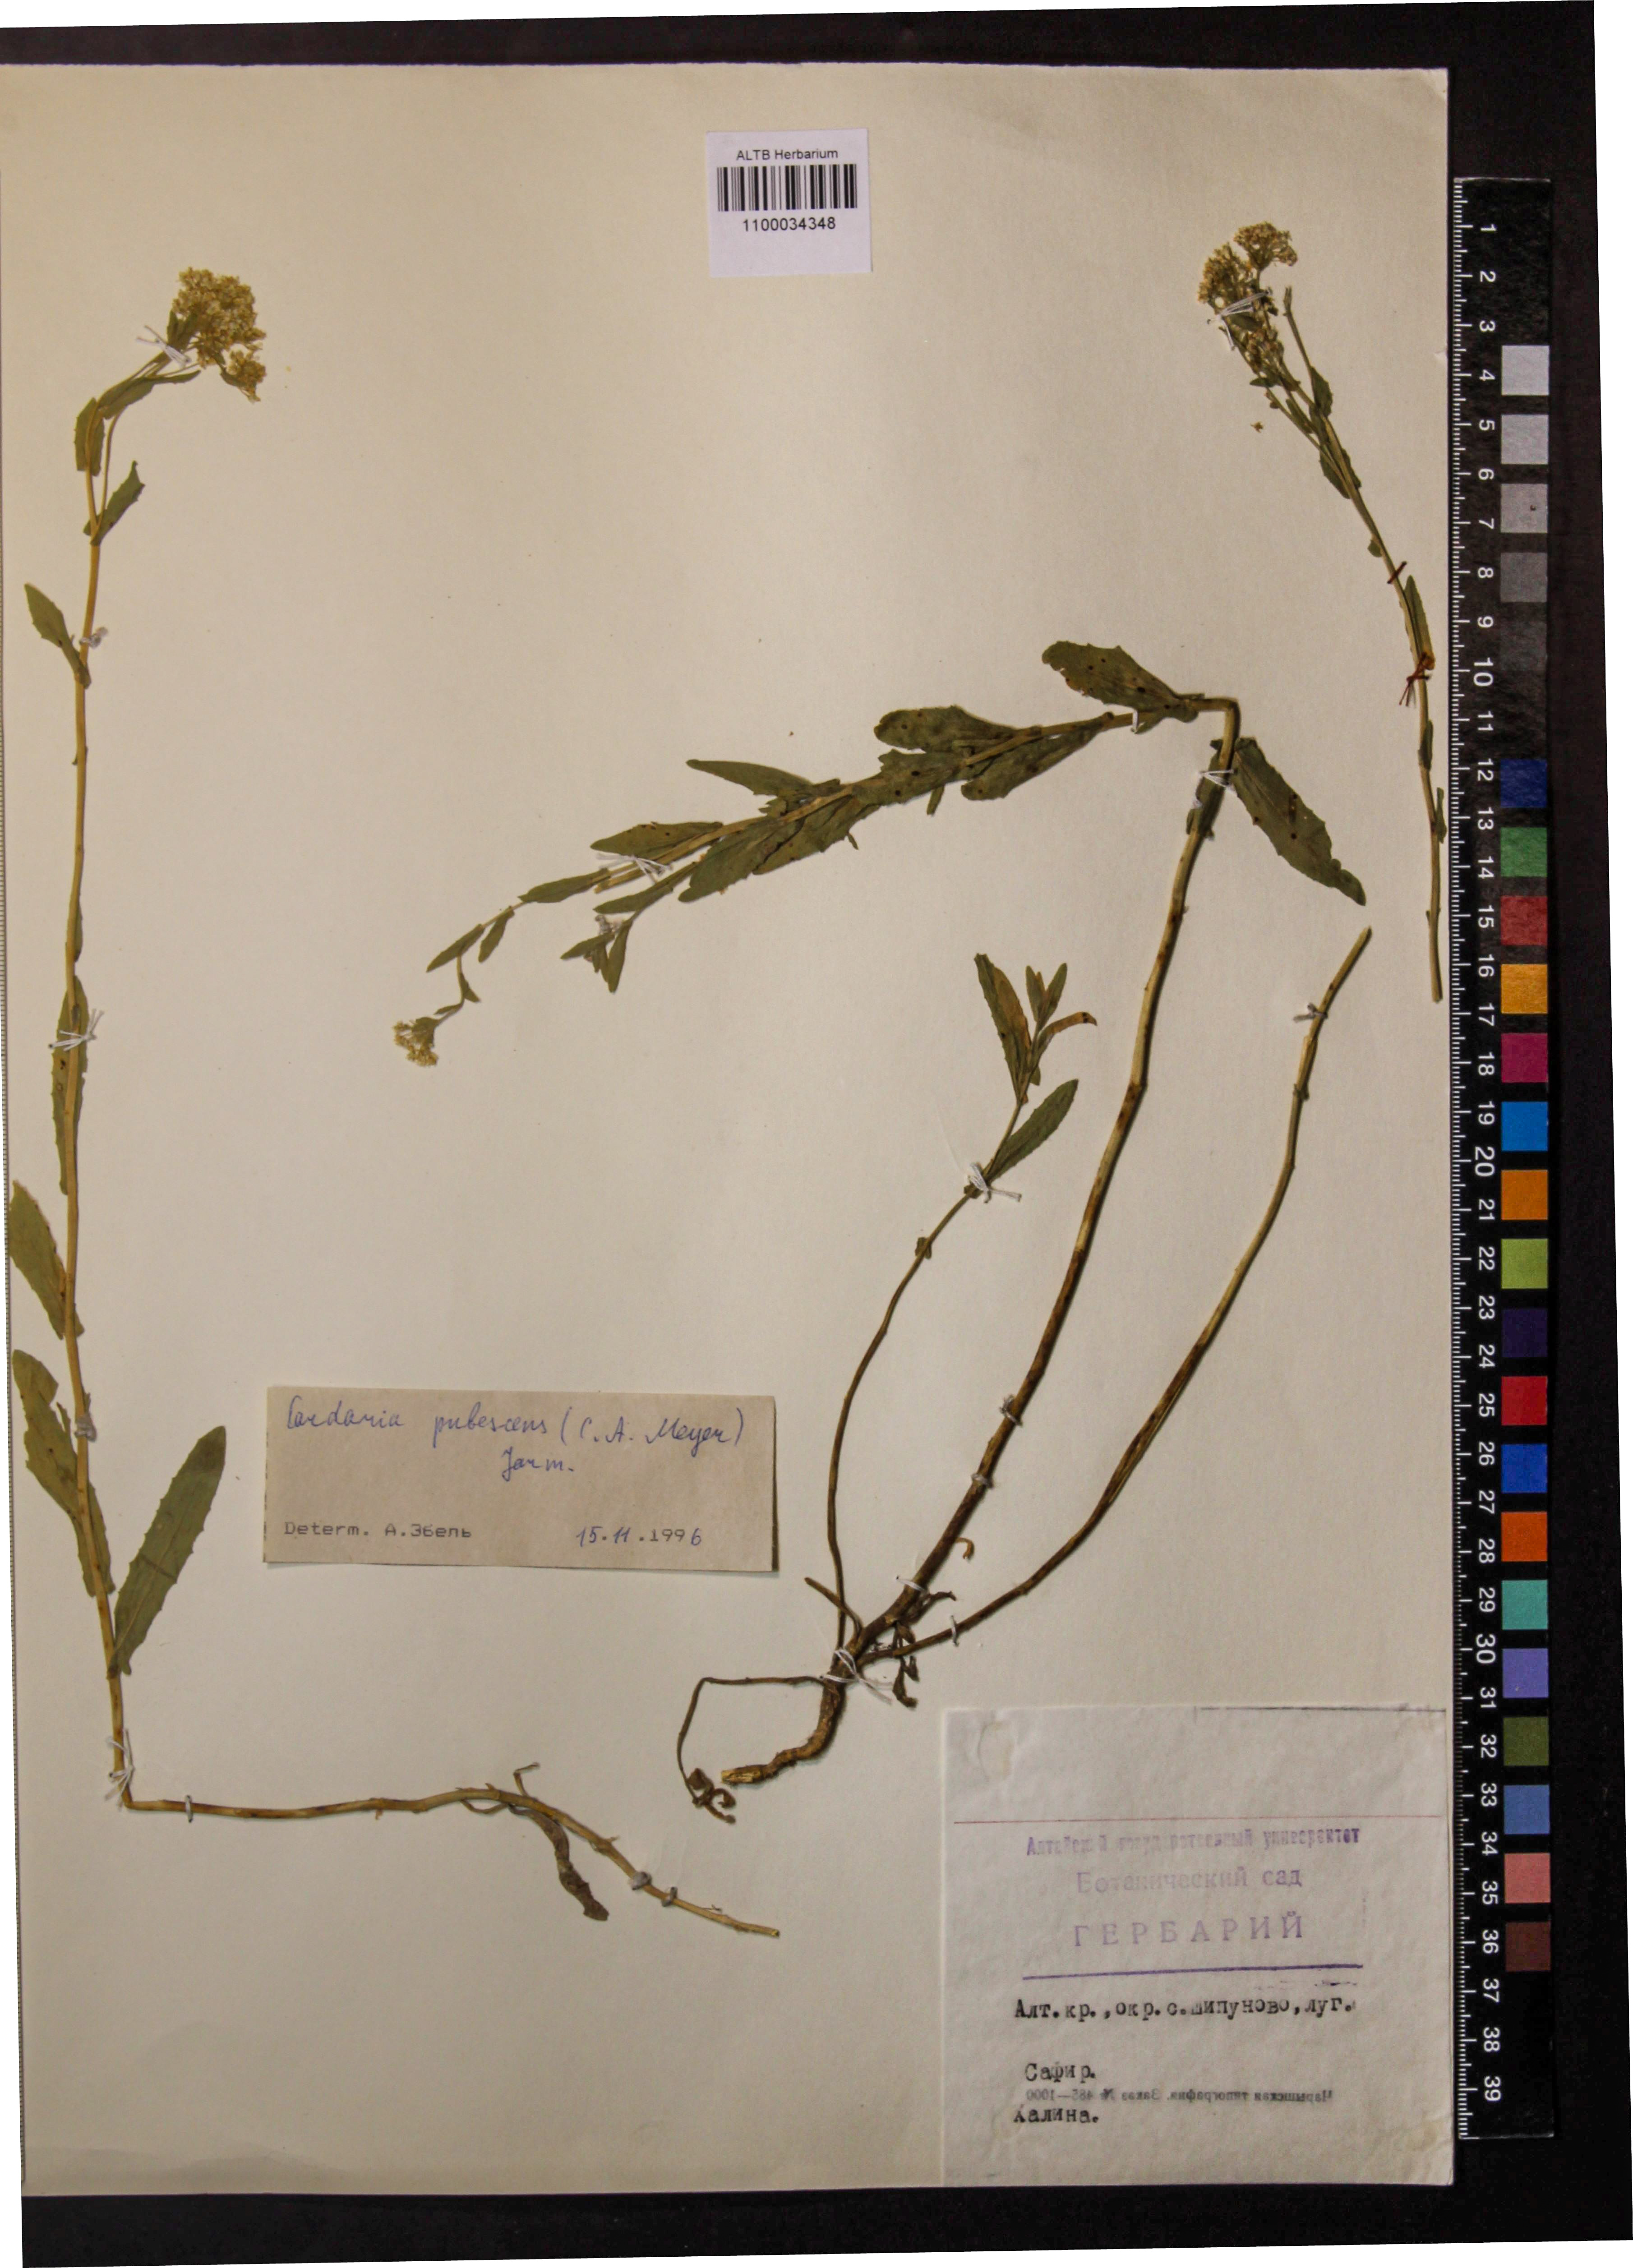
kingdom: Plantae
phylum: Tracheophyta
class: Magnoliopsida
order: Brassicales
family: Brassicaceae
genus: Lepidium
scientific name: Lepidium appelianum
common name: Hairy whitetop
